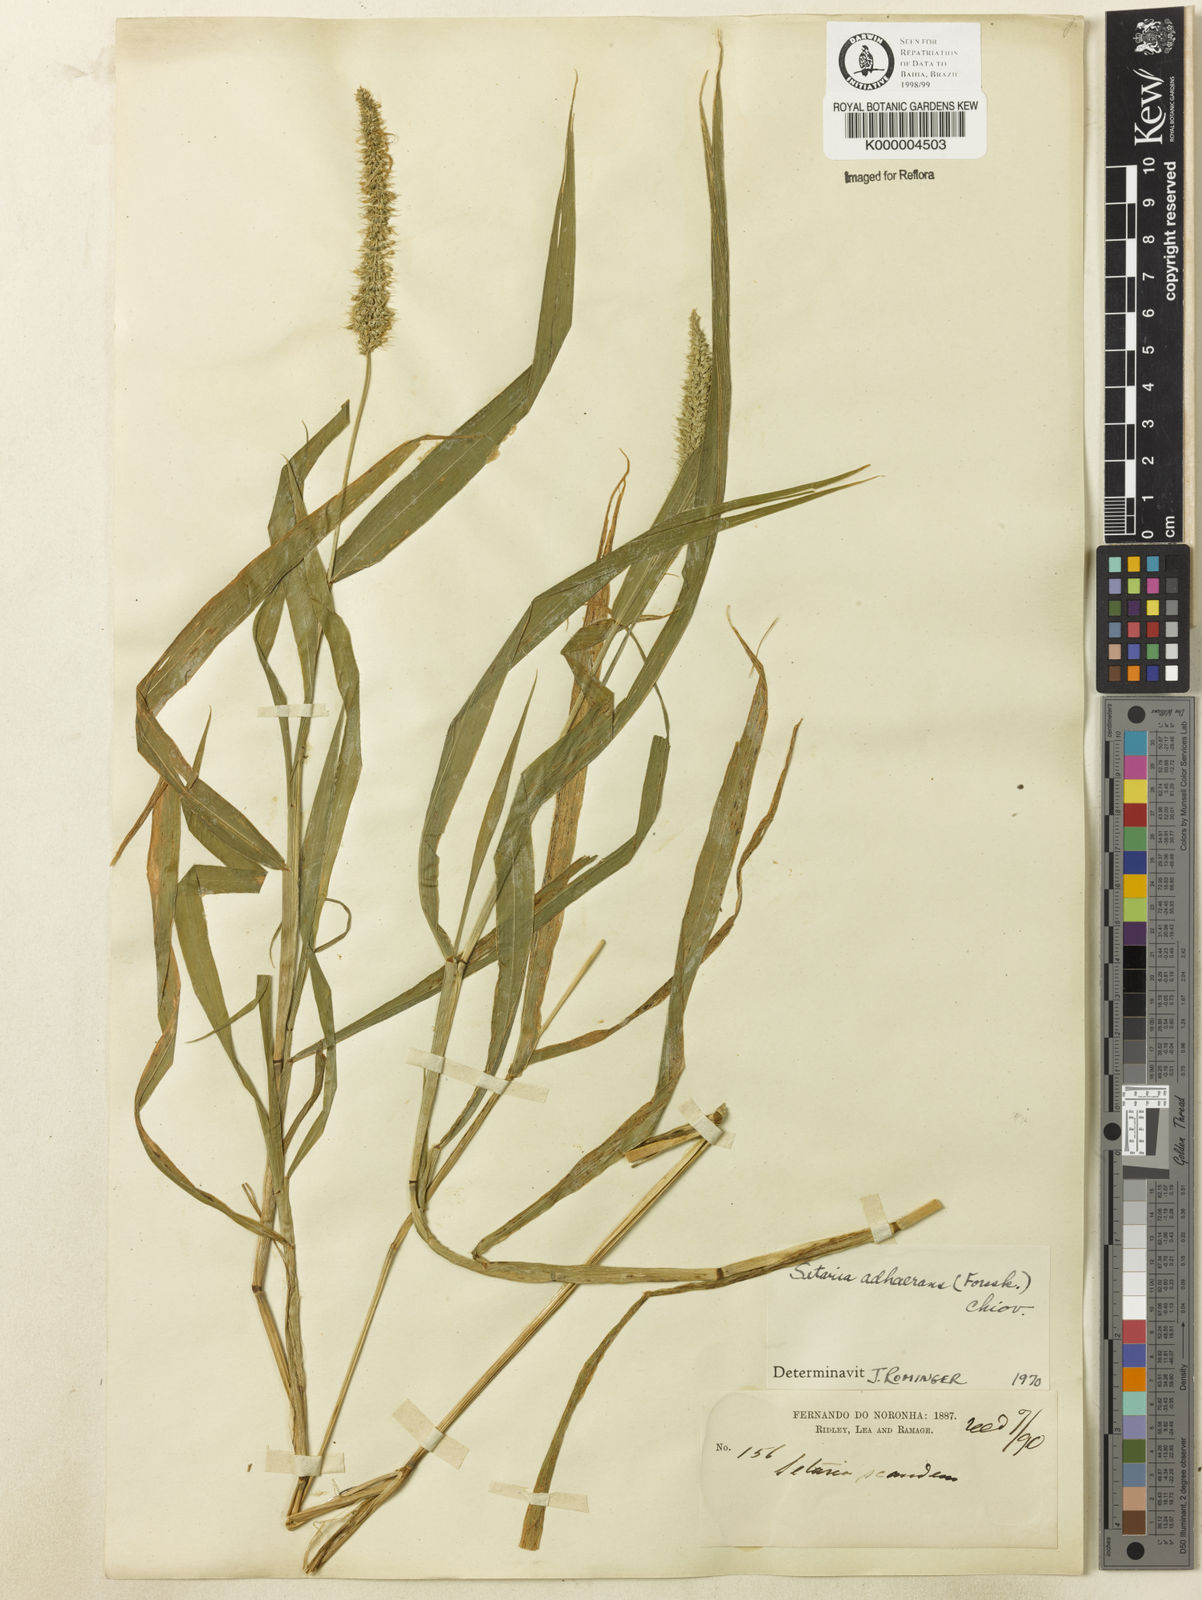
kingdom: Plantae
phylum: Tracheophyta
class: Liliopsida
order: Poales
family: Poaceae
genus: Setaria
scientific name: Setaria verticillata
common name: Hooked bristlegrass
